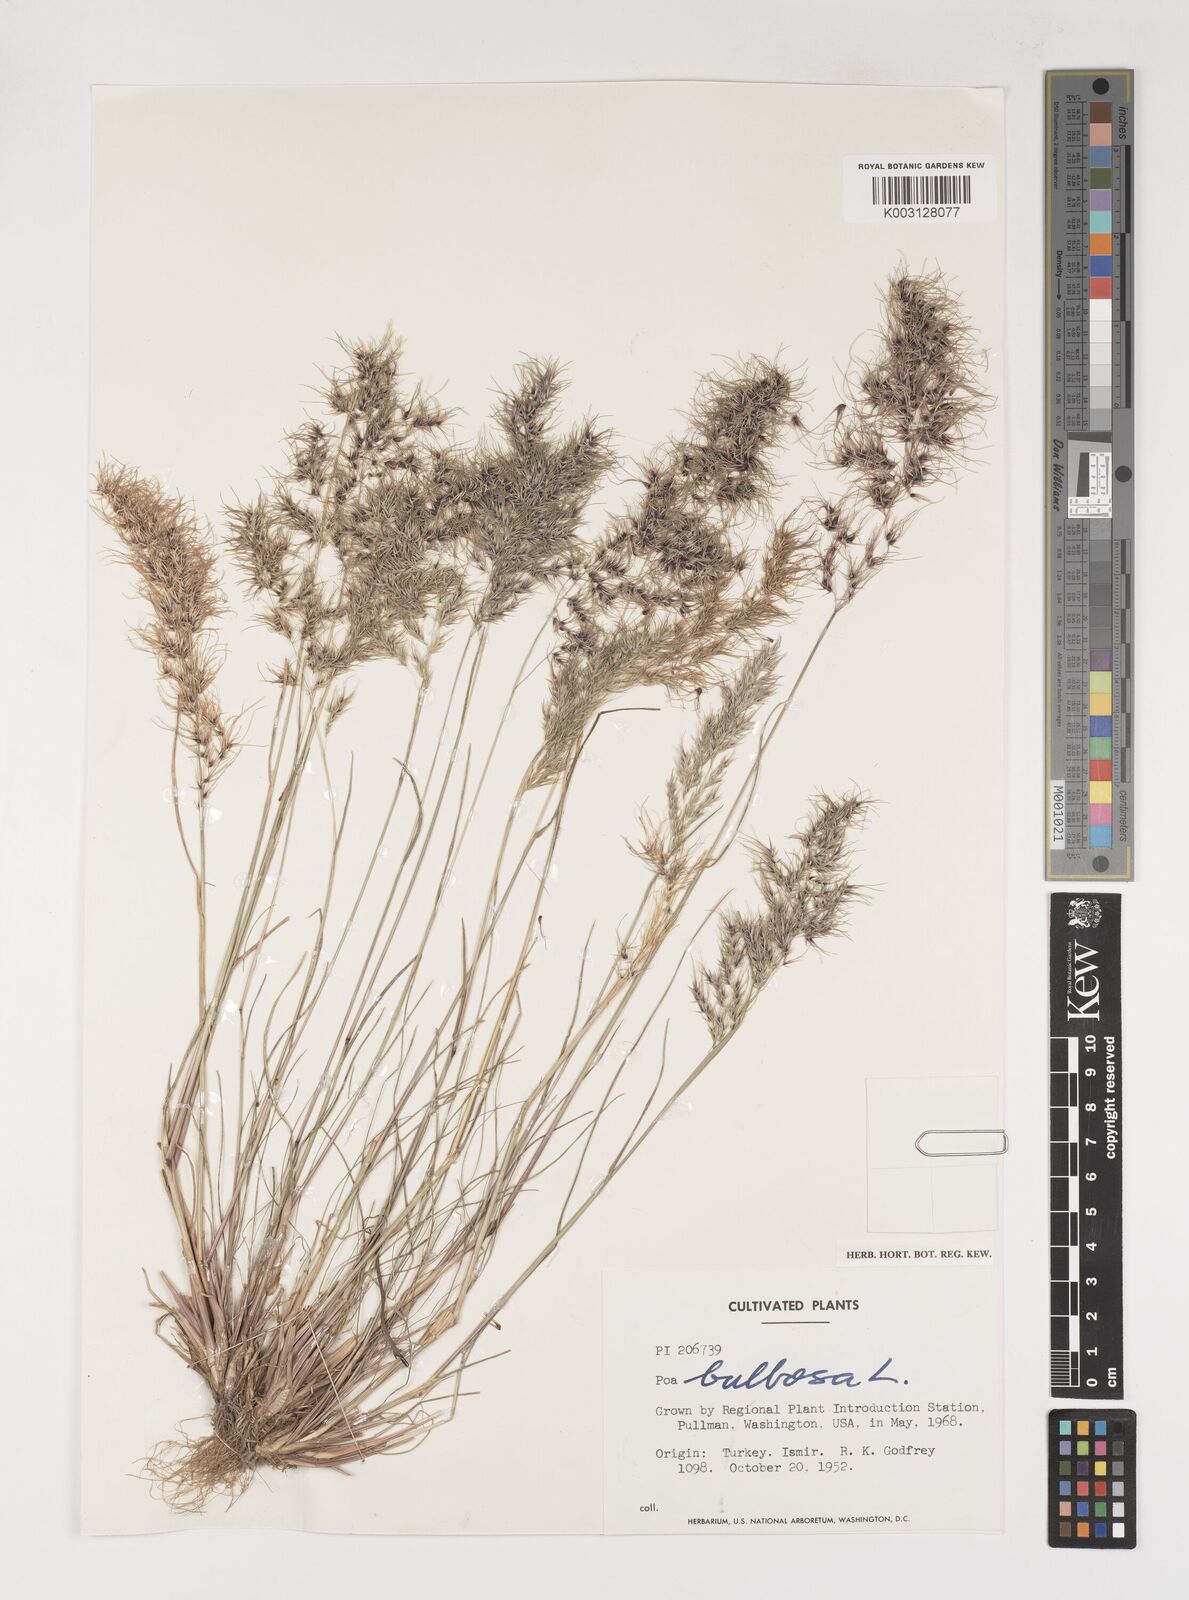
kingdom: Plantae
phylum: Tracheophyta
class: Liliopsida
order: Poales
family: Poaceae
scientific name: Poaceae
